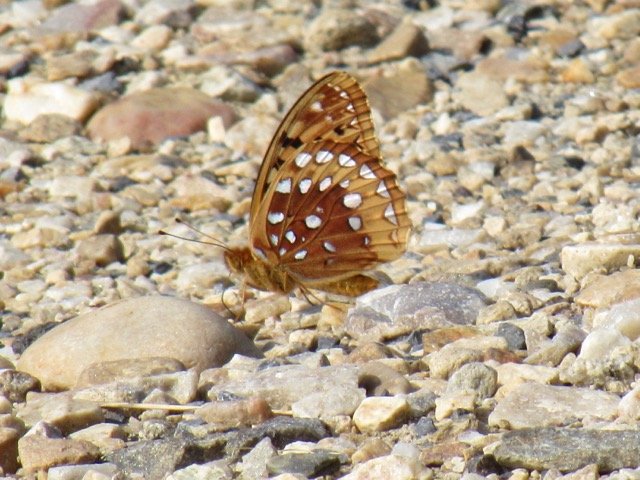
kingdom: Animalia
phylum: Arthropoda
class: Insecta
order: Lepidoptera
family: Nymphalidae
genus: Speyeria
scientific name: Speyeria cybele
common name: Great Spangled Fritillary
